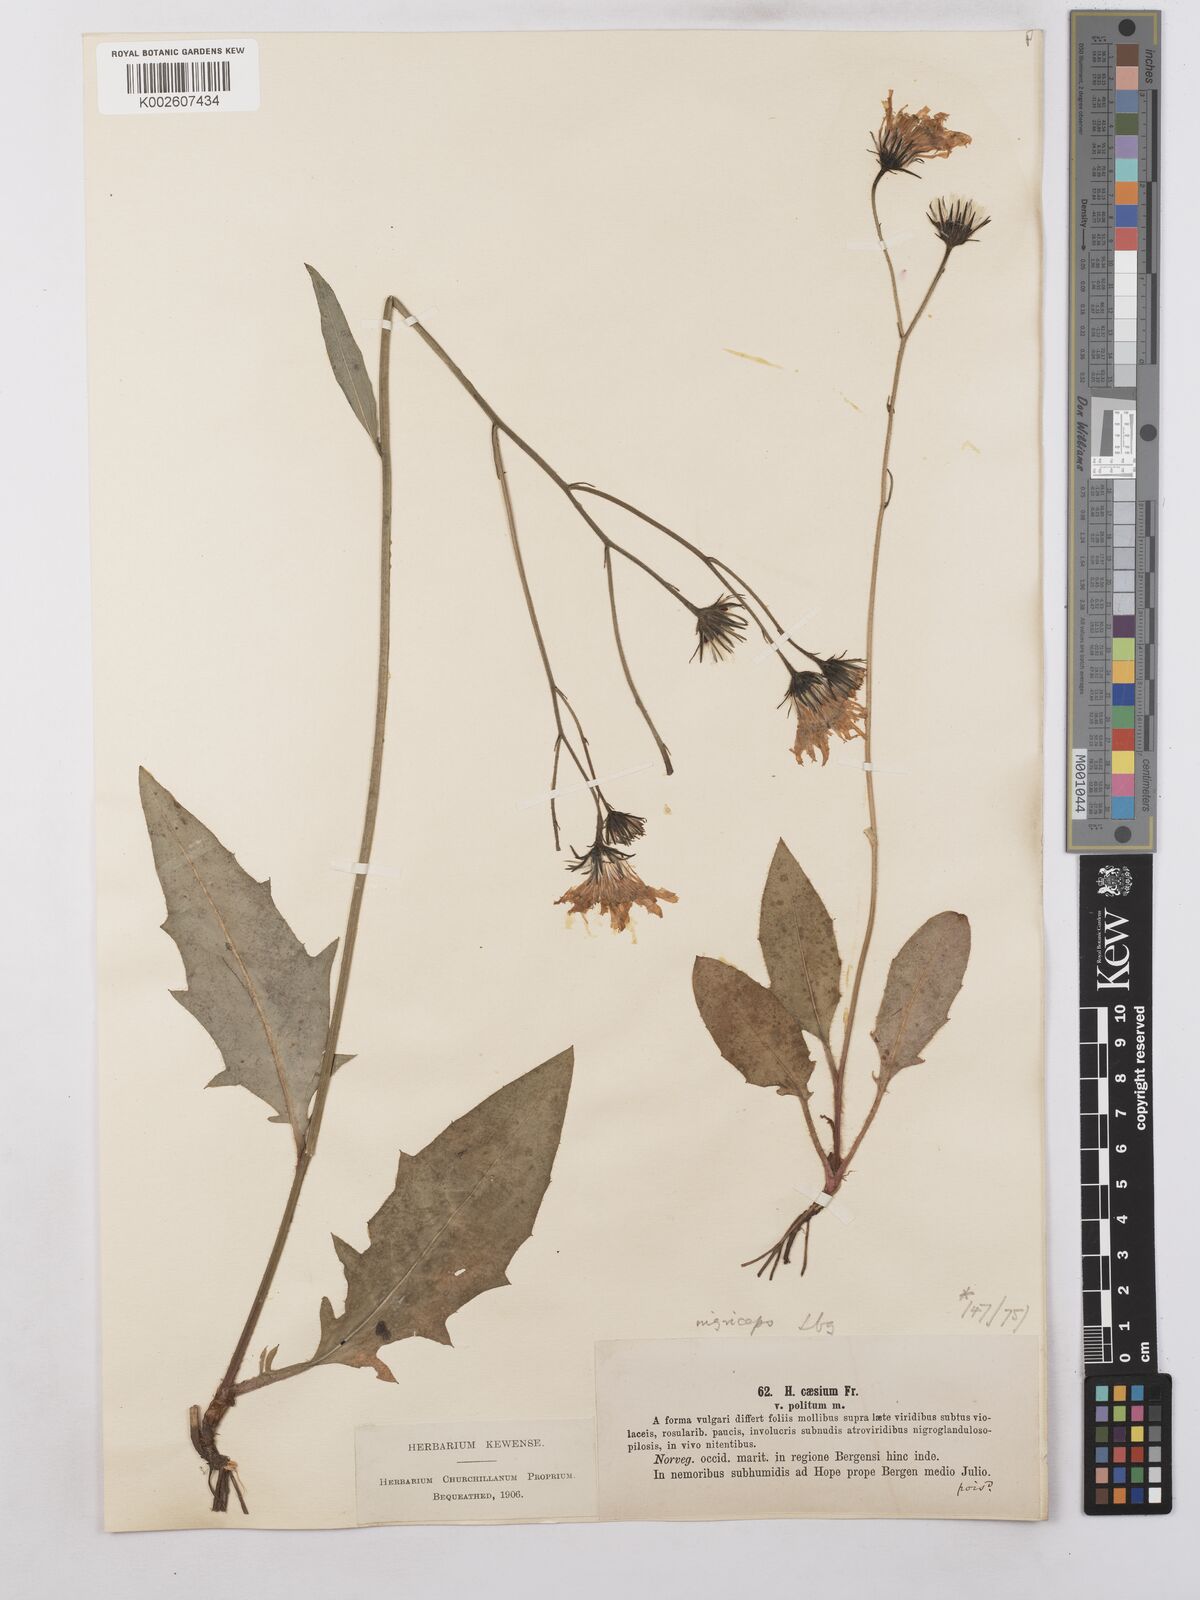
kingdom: Plantae
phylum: Tracheophyta
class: Magnoliopsida
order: Asterales
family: Asteraceae
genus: Hieracium
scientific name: Hieracium caesium
